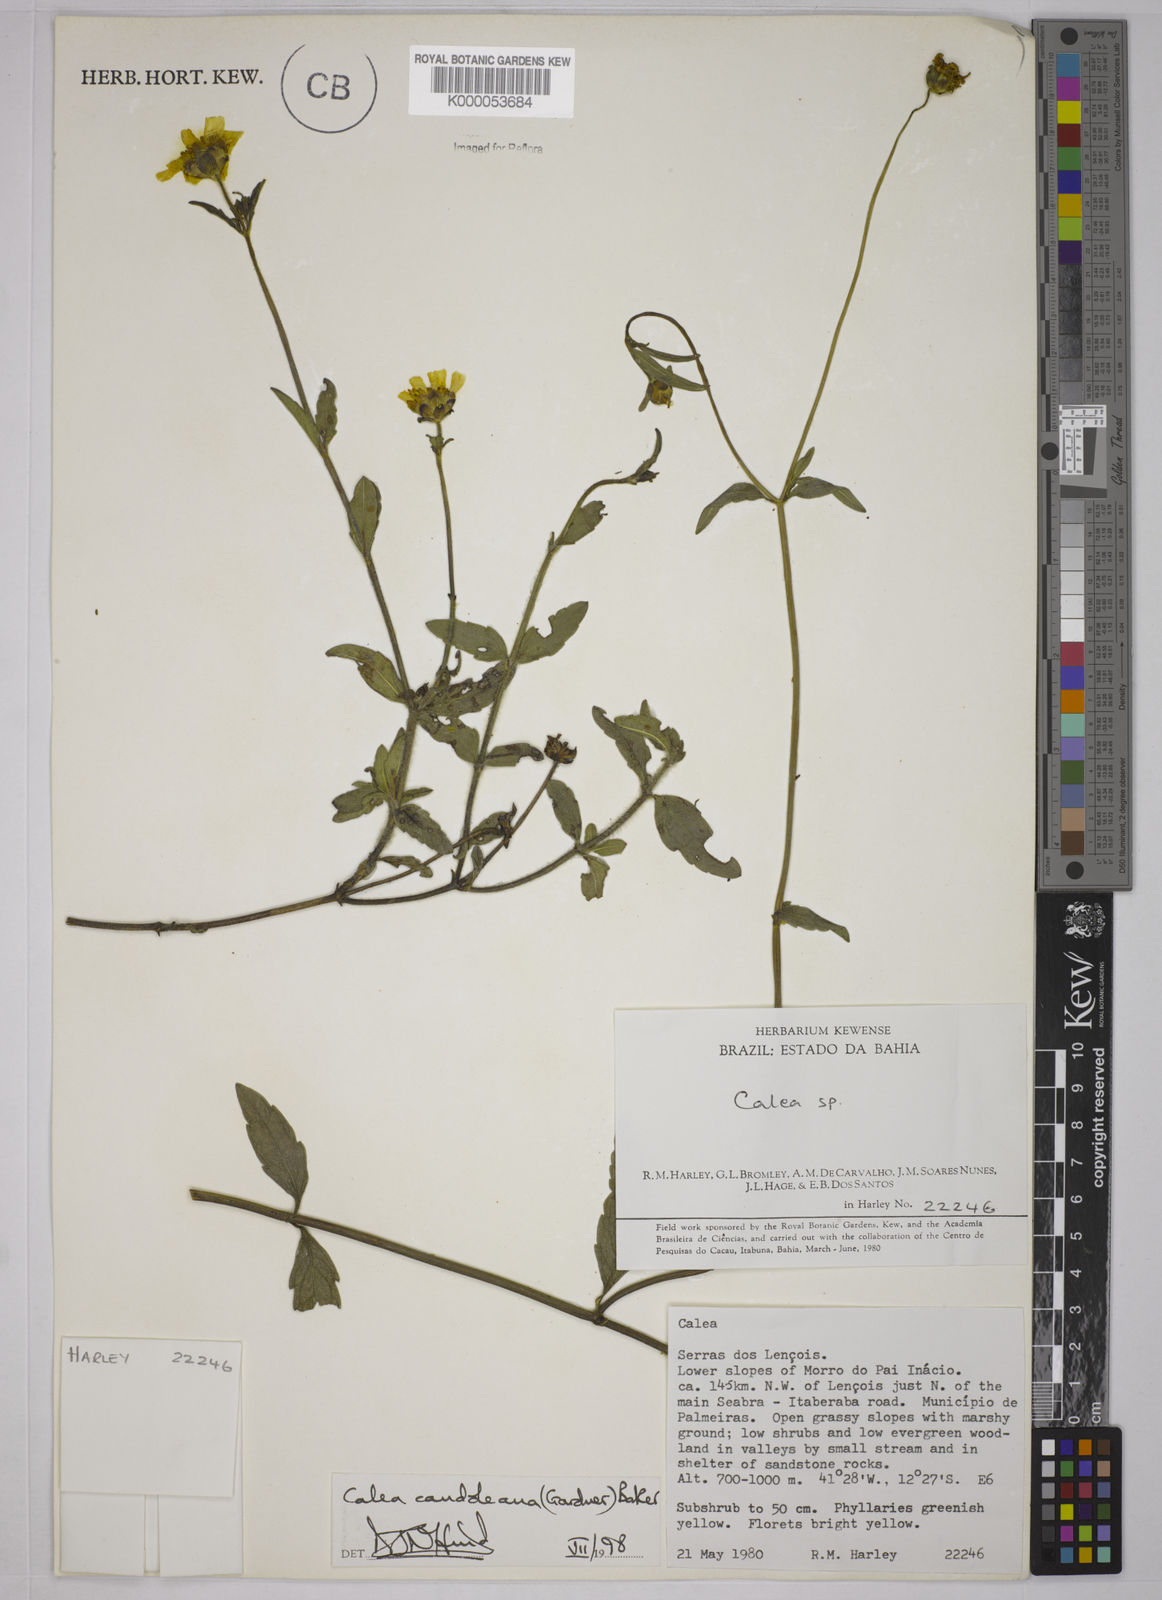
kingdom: Plantae
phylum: Tracheophyta
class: Magnoliopsida
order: Asterales
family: Asteraceae
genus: Calea
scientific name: Calea candolleana
